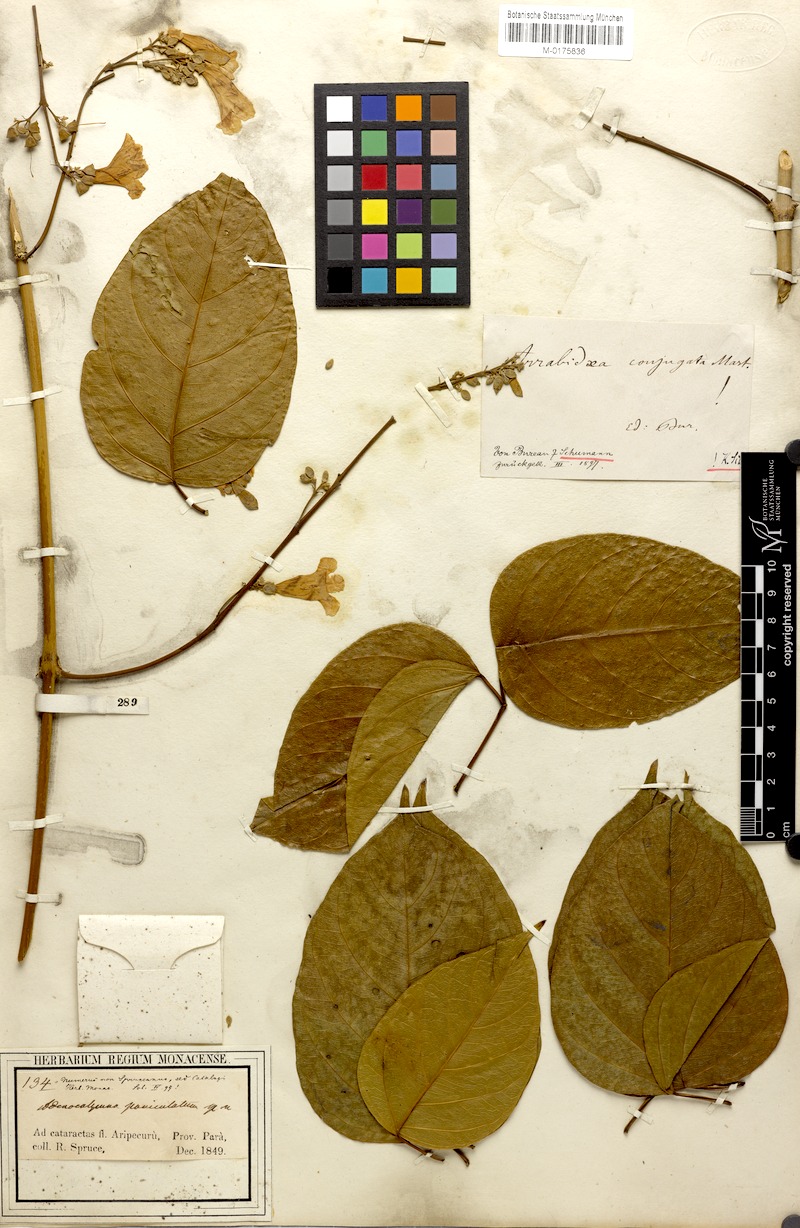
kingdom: Plantae
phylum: Tracheophyta
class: Magnoliopsida
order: Lamiales
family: Bignoniaceae
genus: Fridericia
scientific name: Fridericia conjugata
